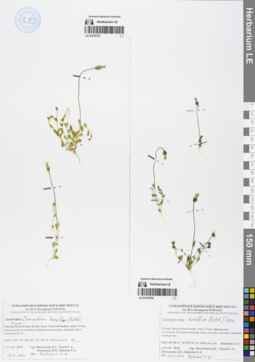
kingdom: Plantae
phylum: Tracheophyta
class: Magnoliopsida
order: Gentianales
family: Gentianaceae
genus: Comastoma
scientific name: Comastoma tenellum
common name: Dane's dwarf gentian
